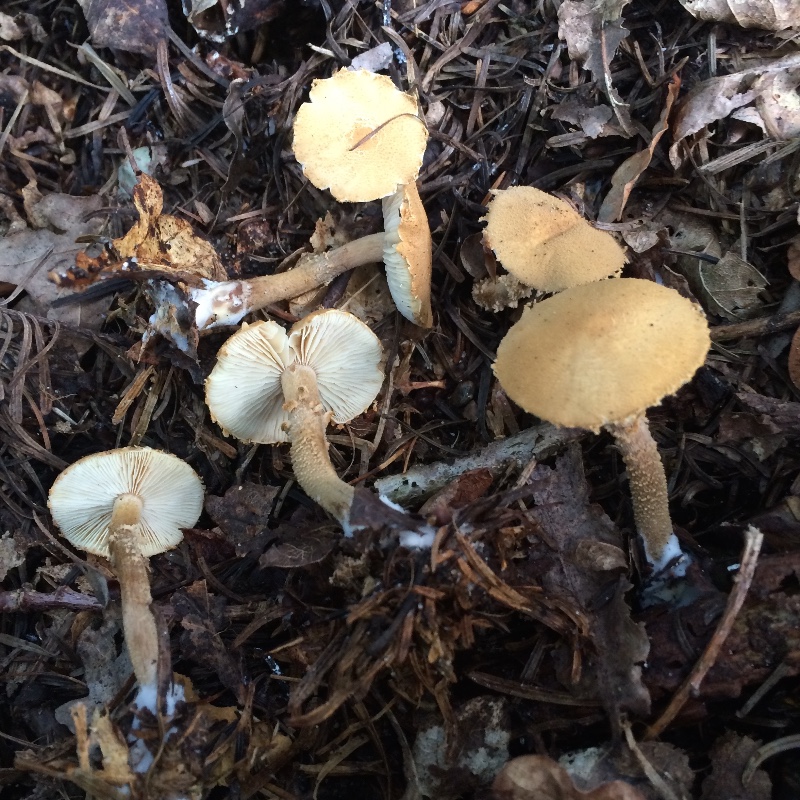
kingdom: Fungi
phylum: Basidiomycota
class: Agaricomycetes
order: Agaricales
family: Tricholomataceae
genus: Cystoderma
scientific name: Cystoderma
